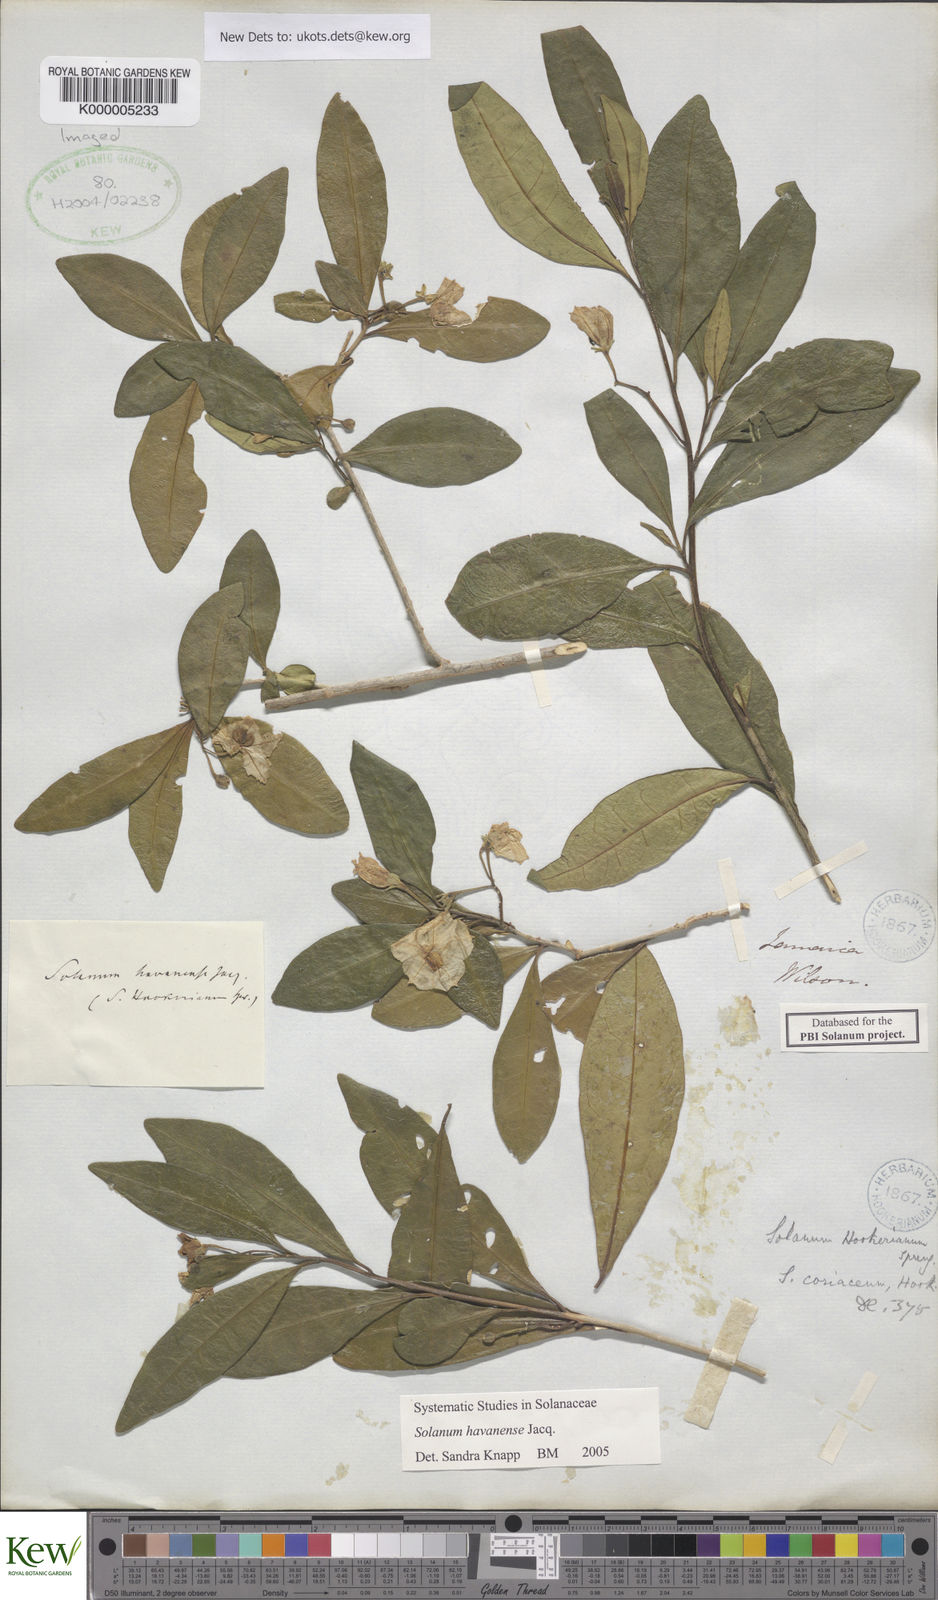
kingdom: Plantae
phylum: Tracheophyta
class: Magnoliopsida
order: Solanales
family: Solanaceae
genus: Solanum
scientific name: Solanum havanense
